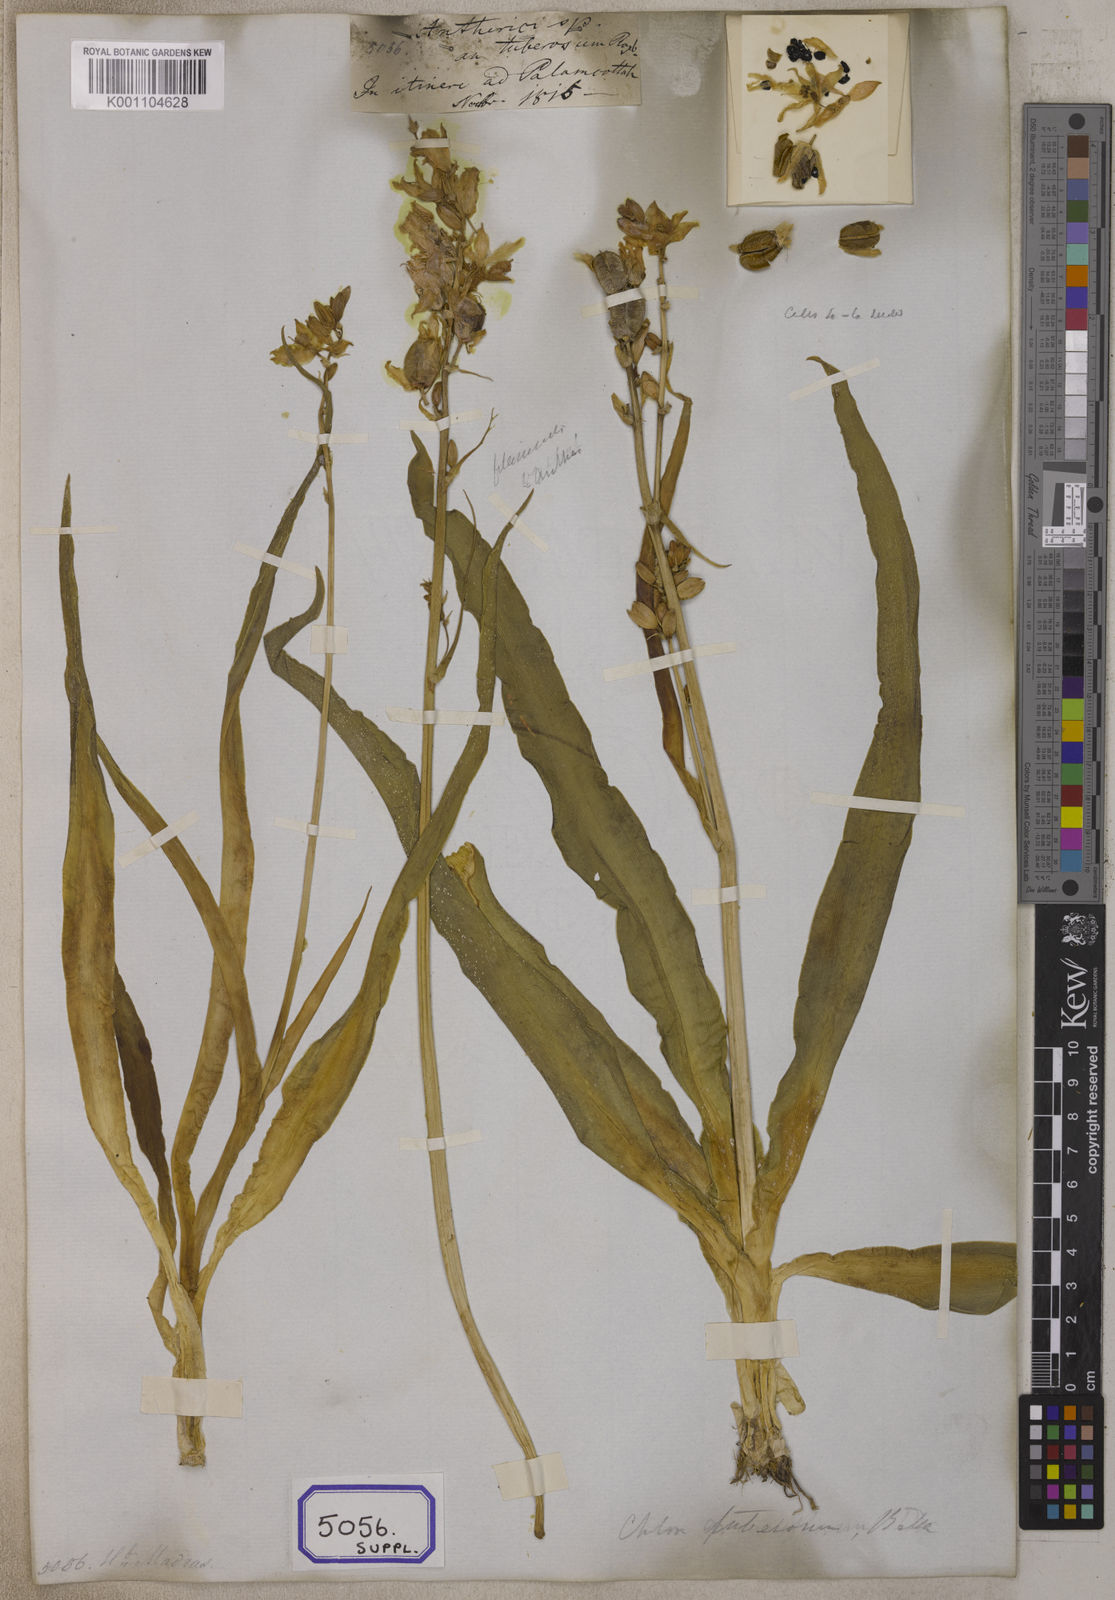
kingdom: Plantae
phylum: Tracheophyta
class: Liliopsida
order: Asparagales
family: Iridaceae
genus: Phalangium
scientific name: Phalangium
